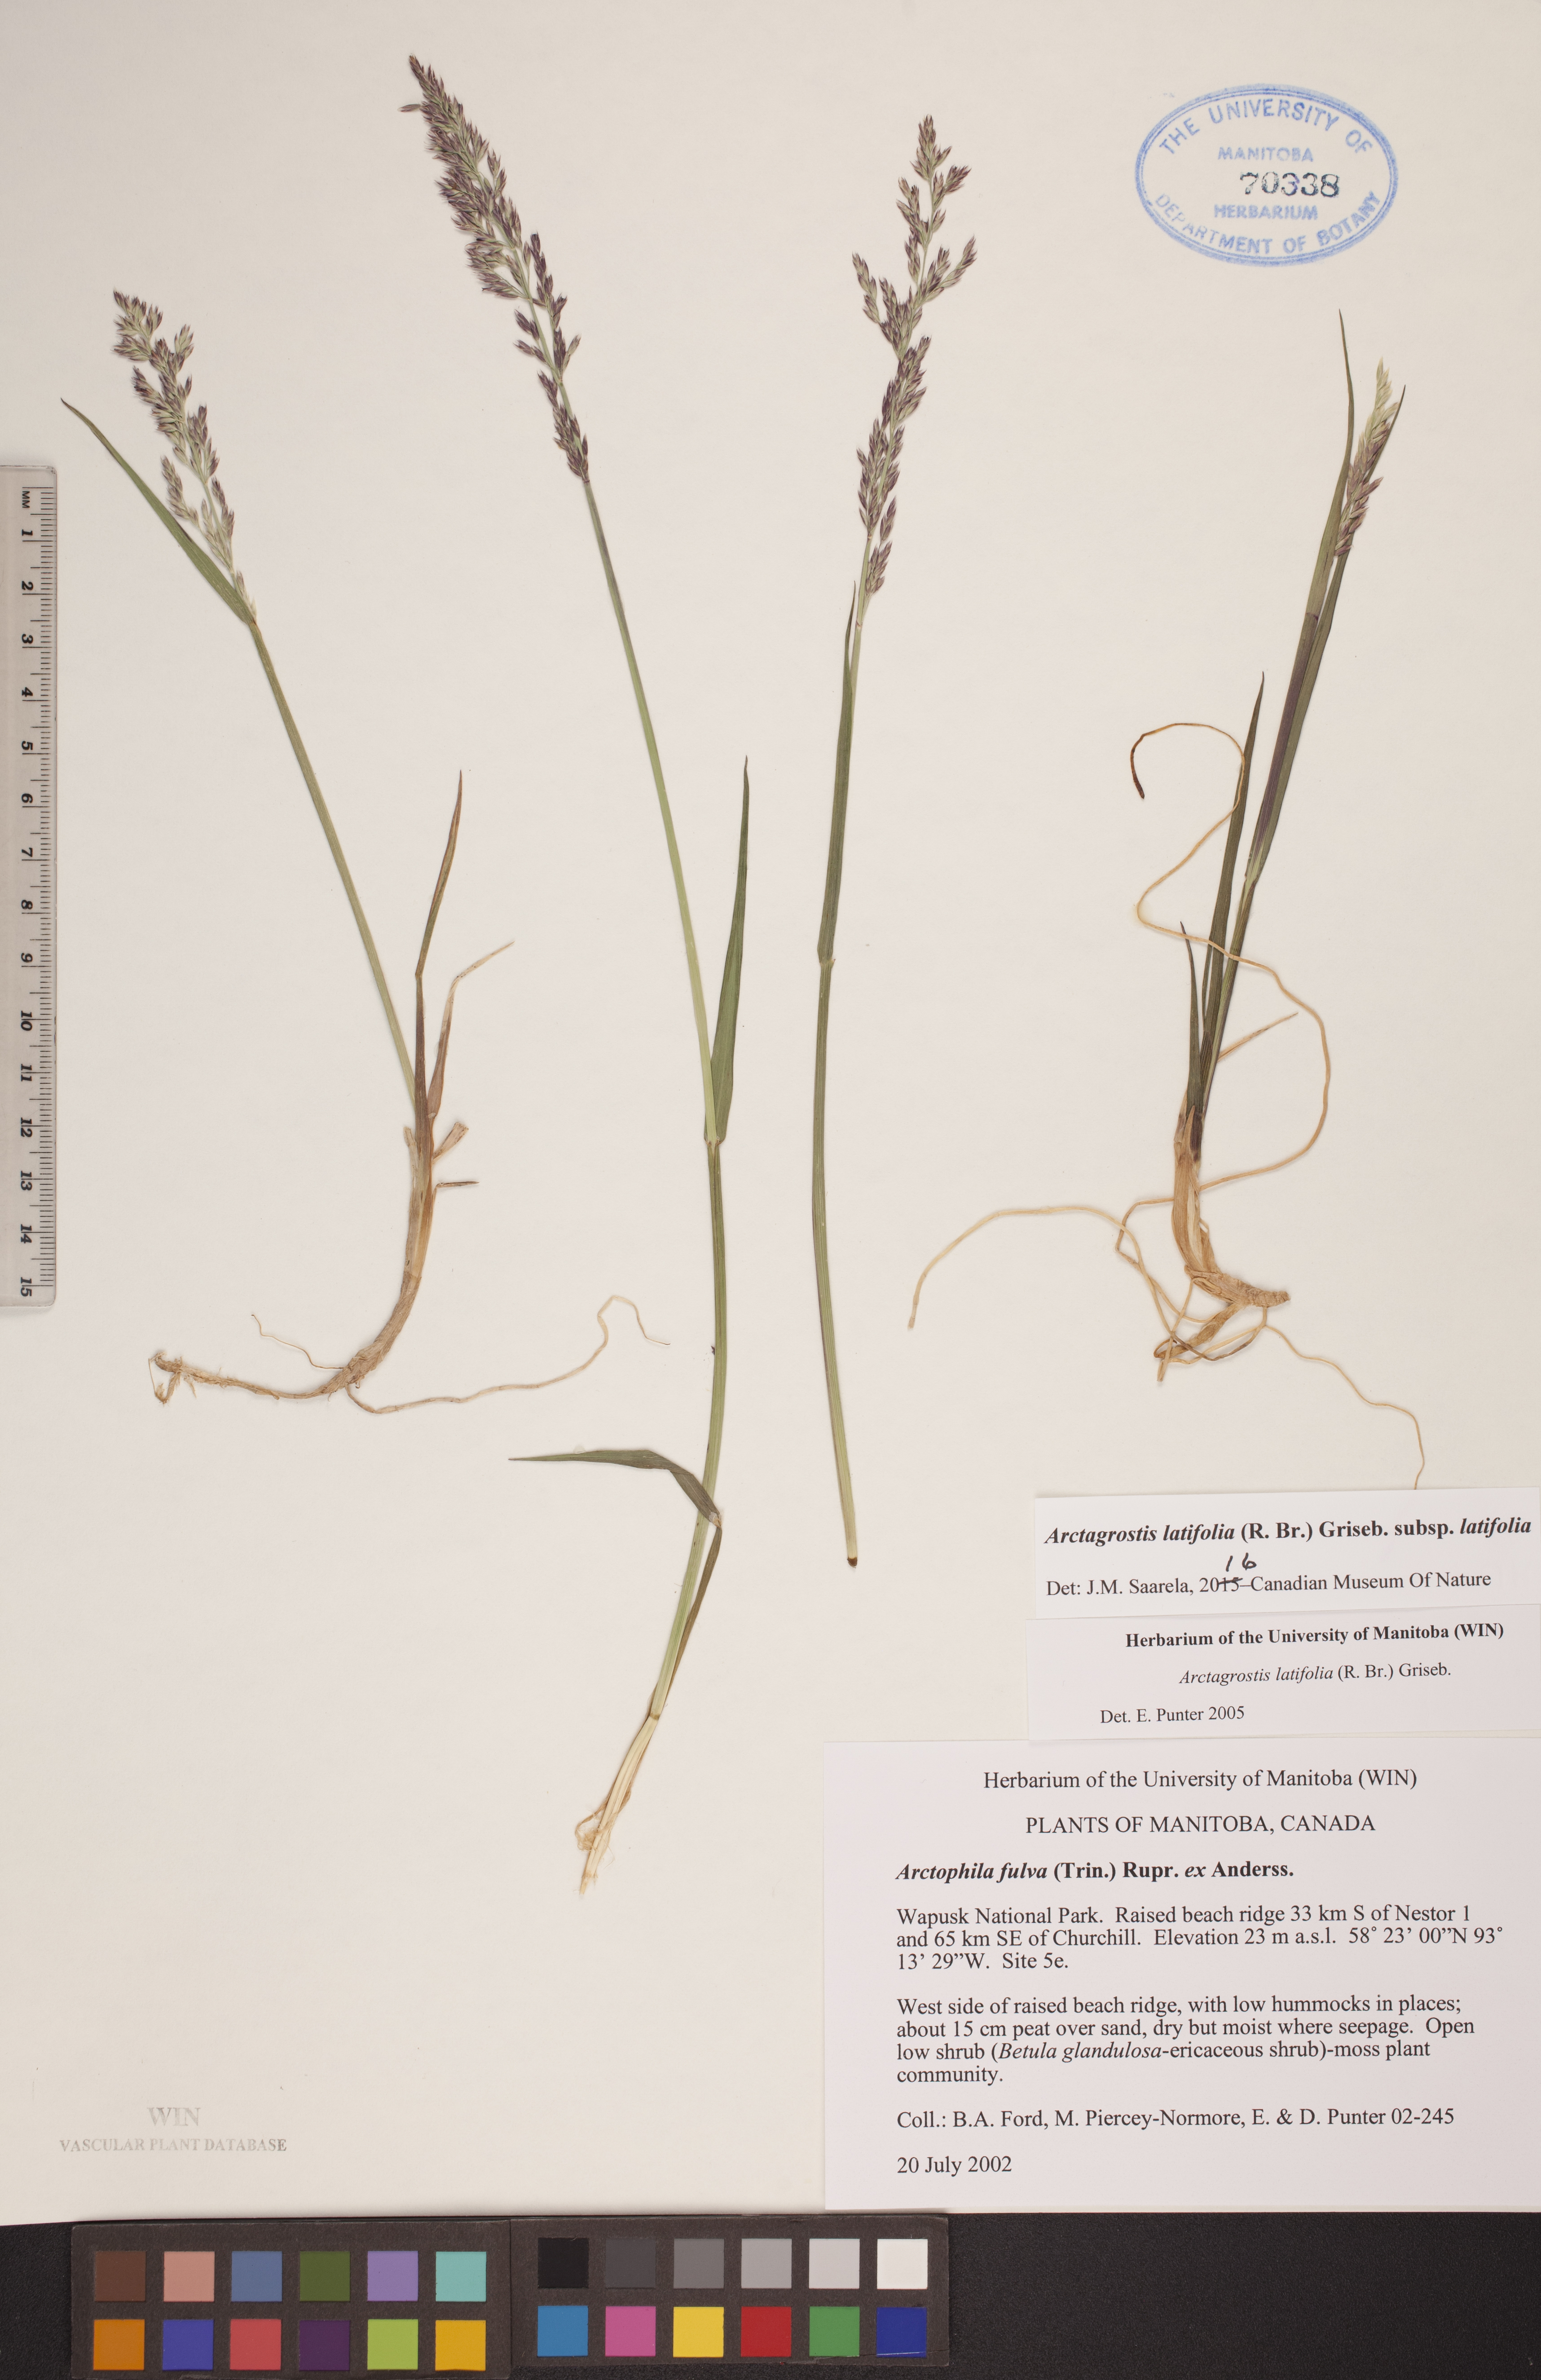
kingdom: Plantae
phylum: Tracheophyta
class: Liliopsida
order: Poales
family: Poaceae
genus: Arctagrostis
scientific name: Arctagrostis latifolia
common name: Arctic grass
